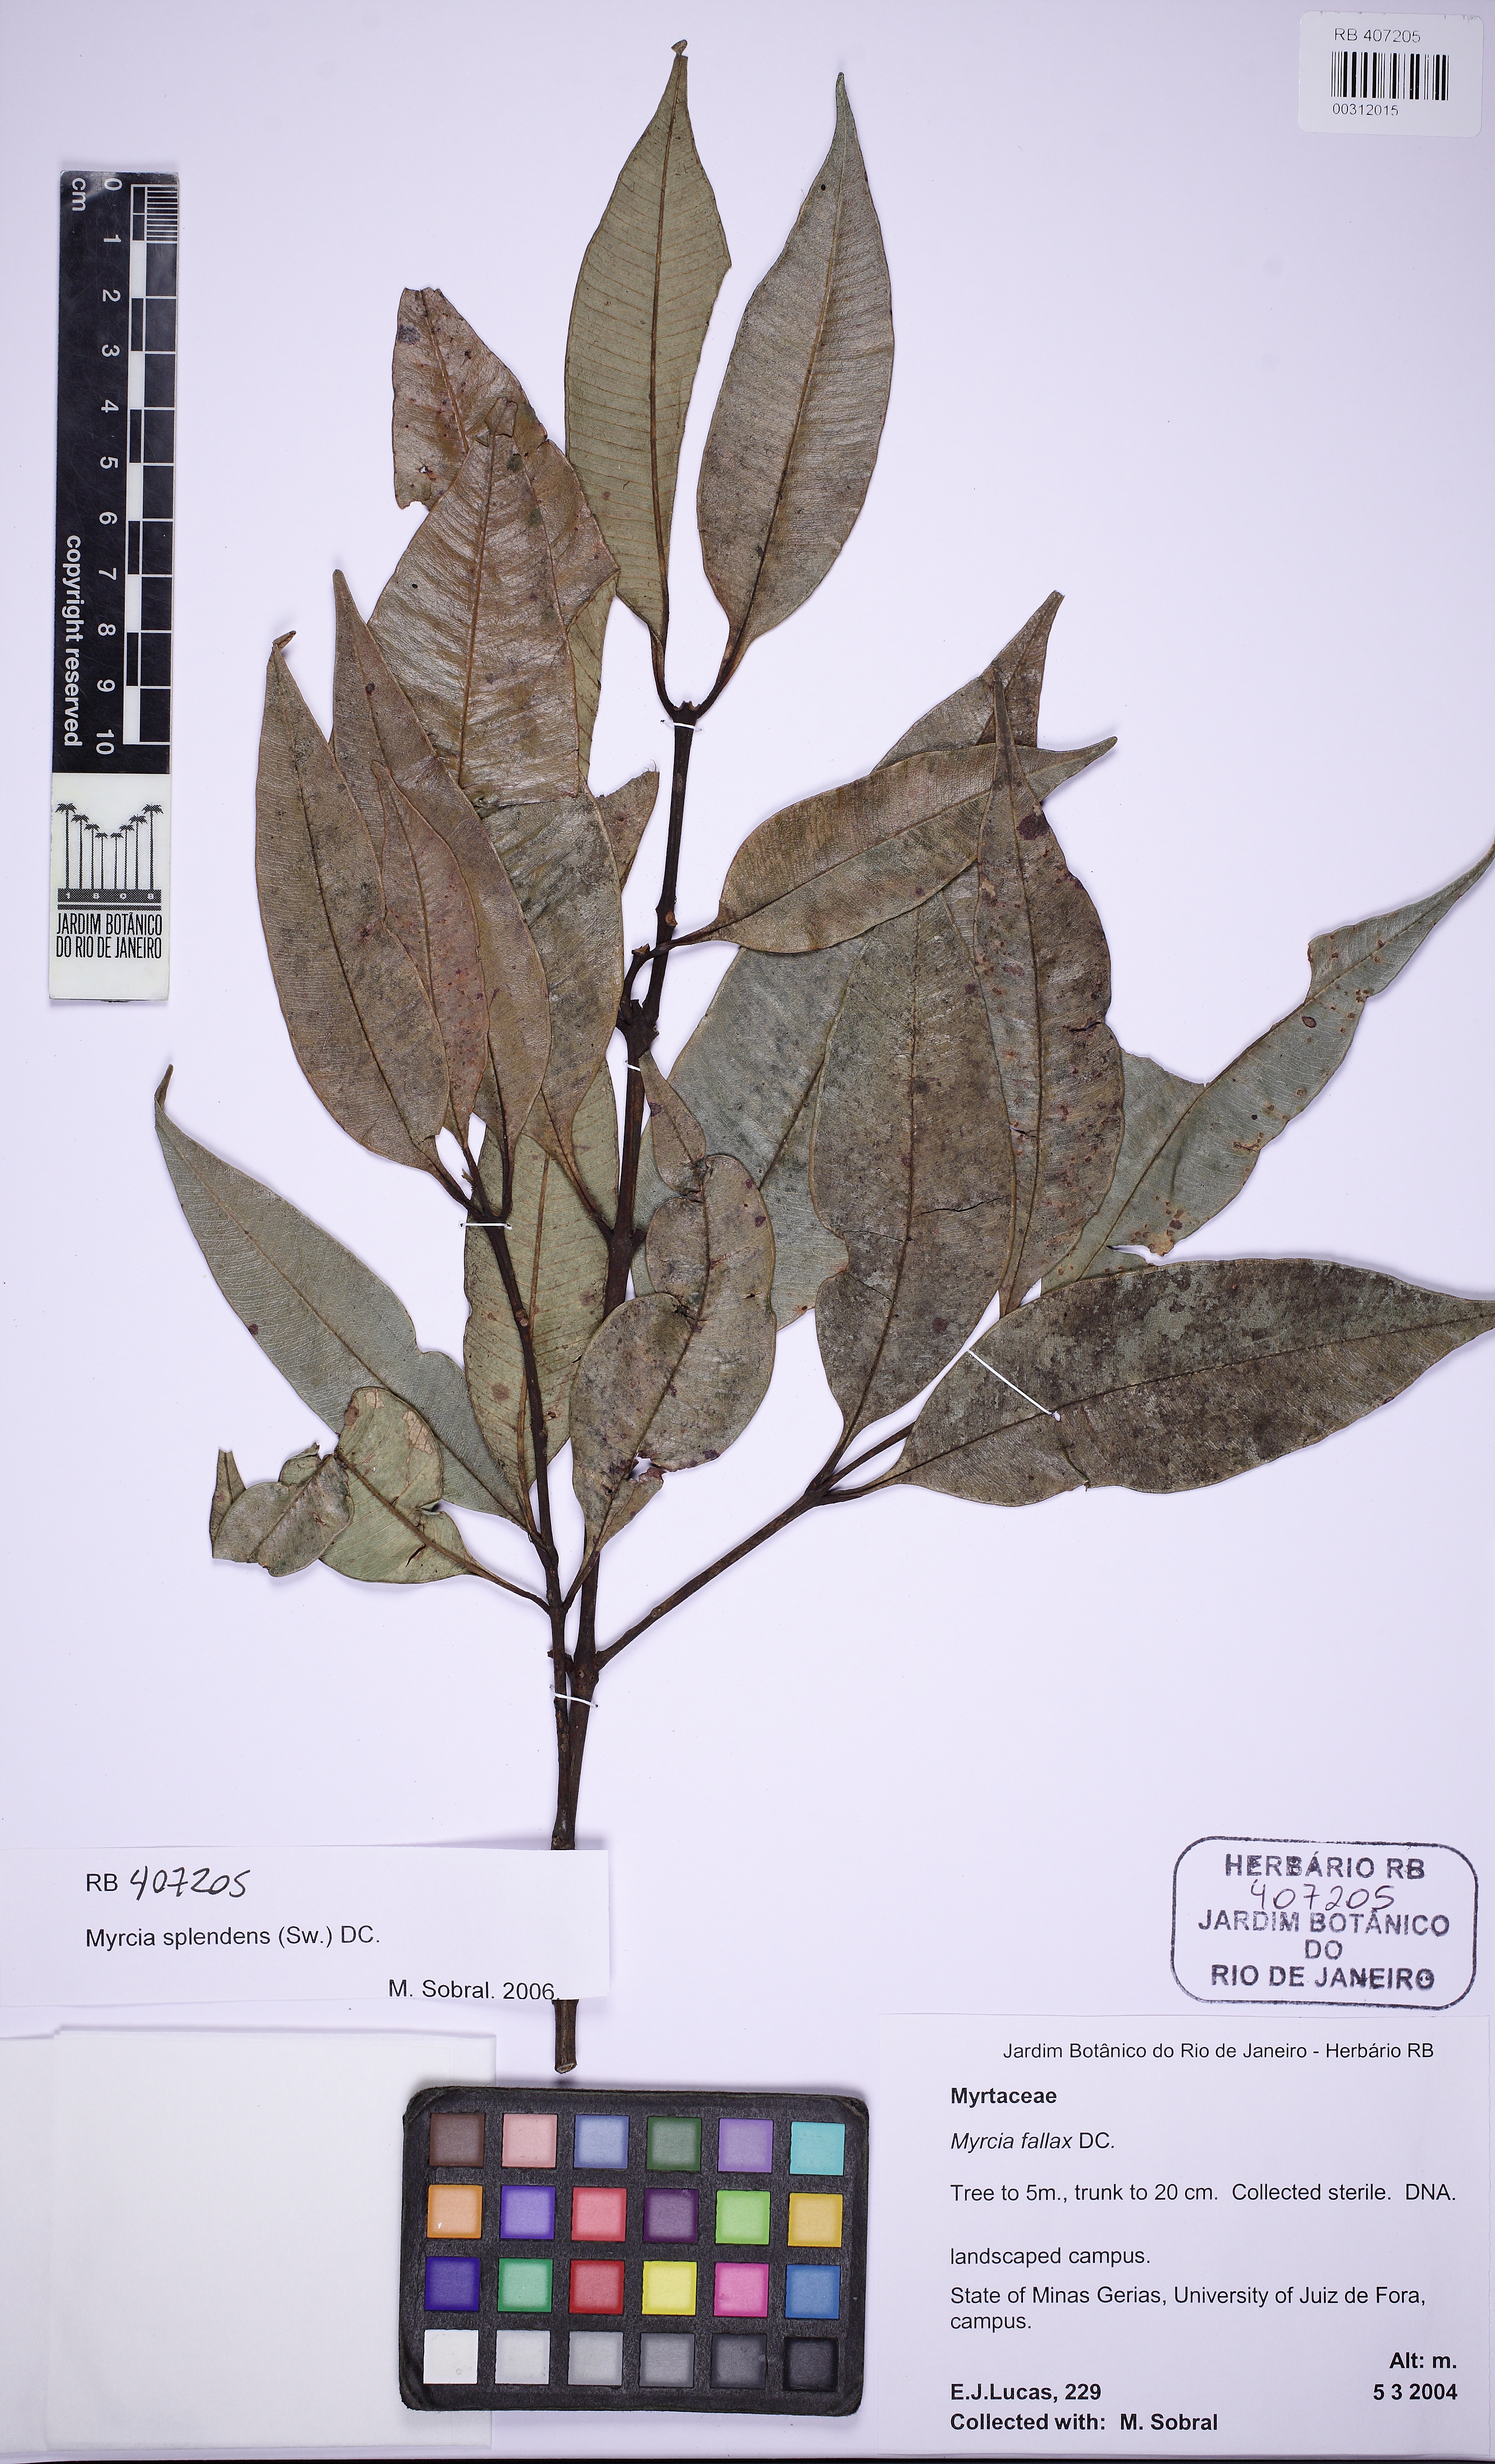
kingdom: Plantae
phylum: Tracheophyta
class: Magnoliopsida
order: Myrtales
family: Myrtaceae
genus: Myrcia
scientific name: Myrcia splendens
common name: Surinam cherry
